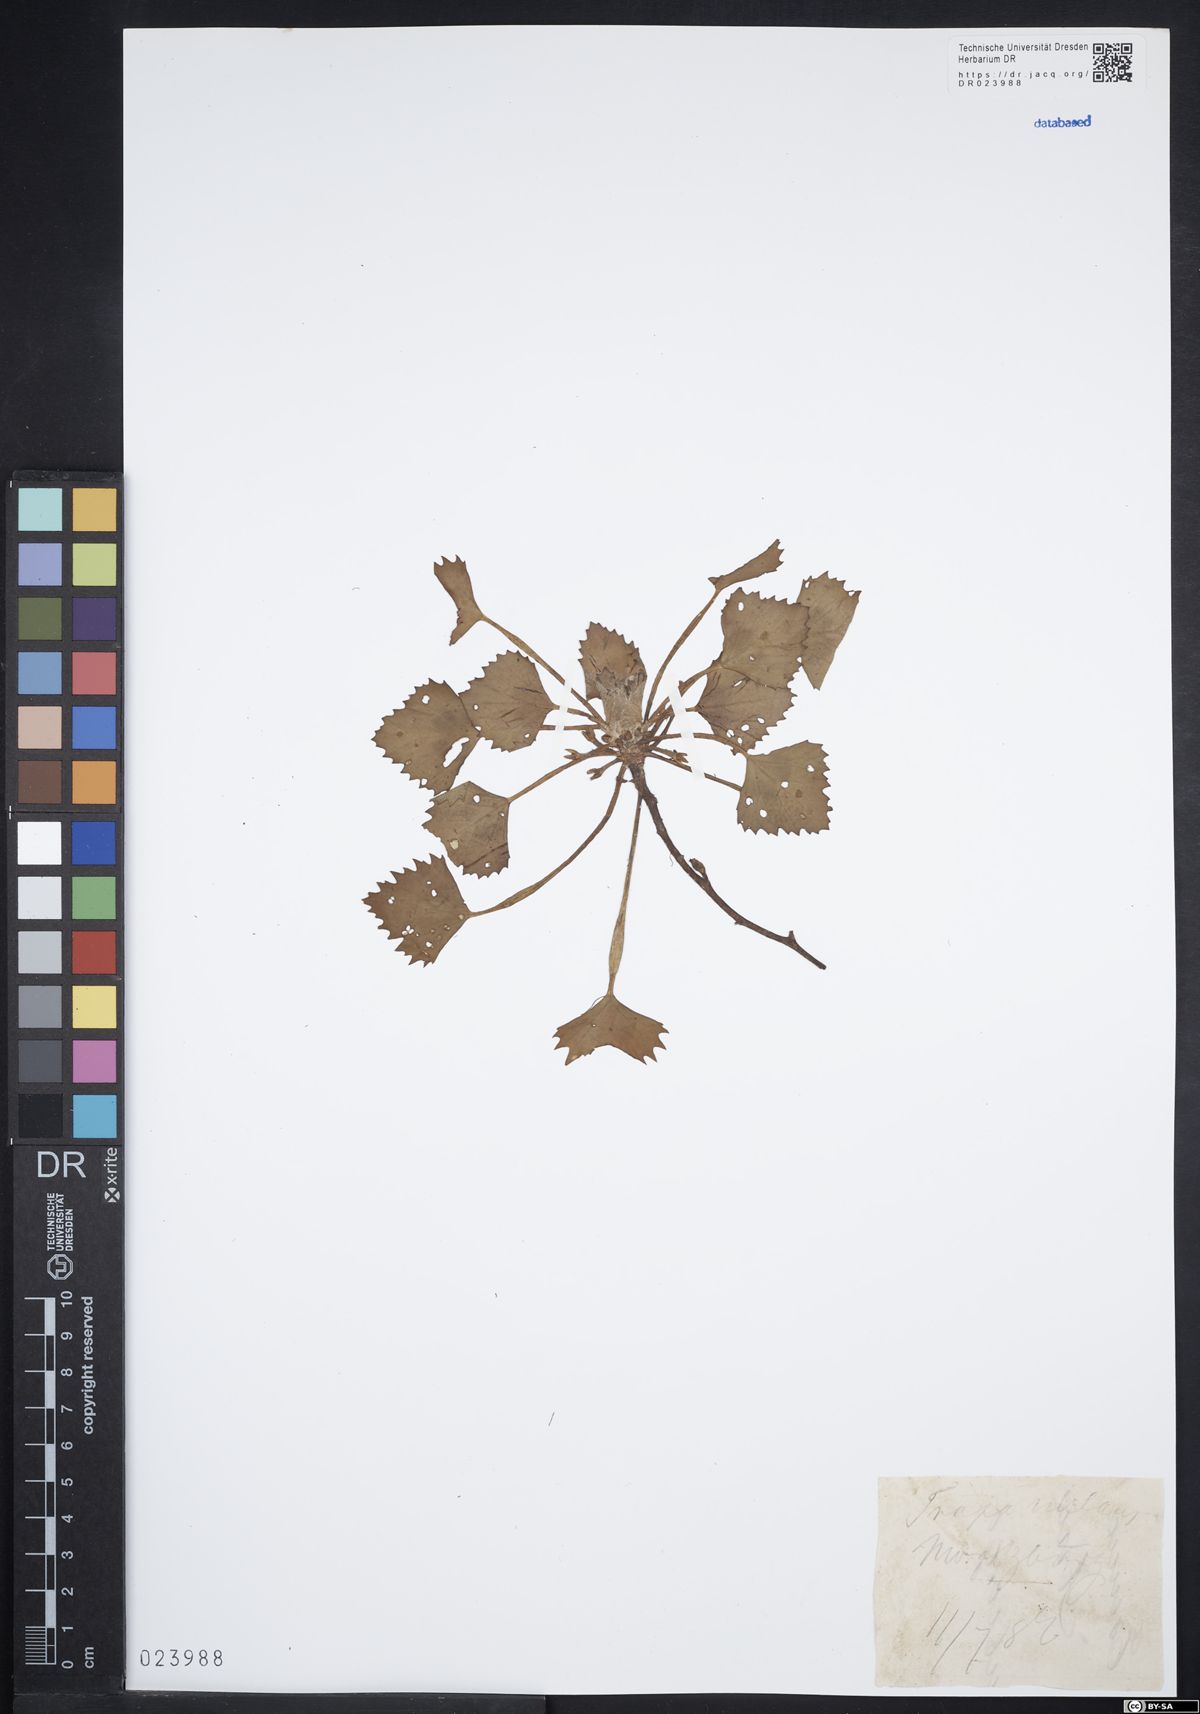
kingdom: Plantae
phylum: Tracheophyta
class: Magnoliopsida
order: Myrtales
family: Lythraceae
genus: Trapa
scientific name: Trapa natans
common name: Water chestnut
